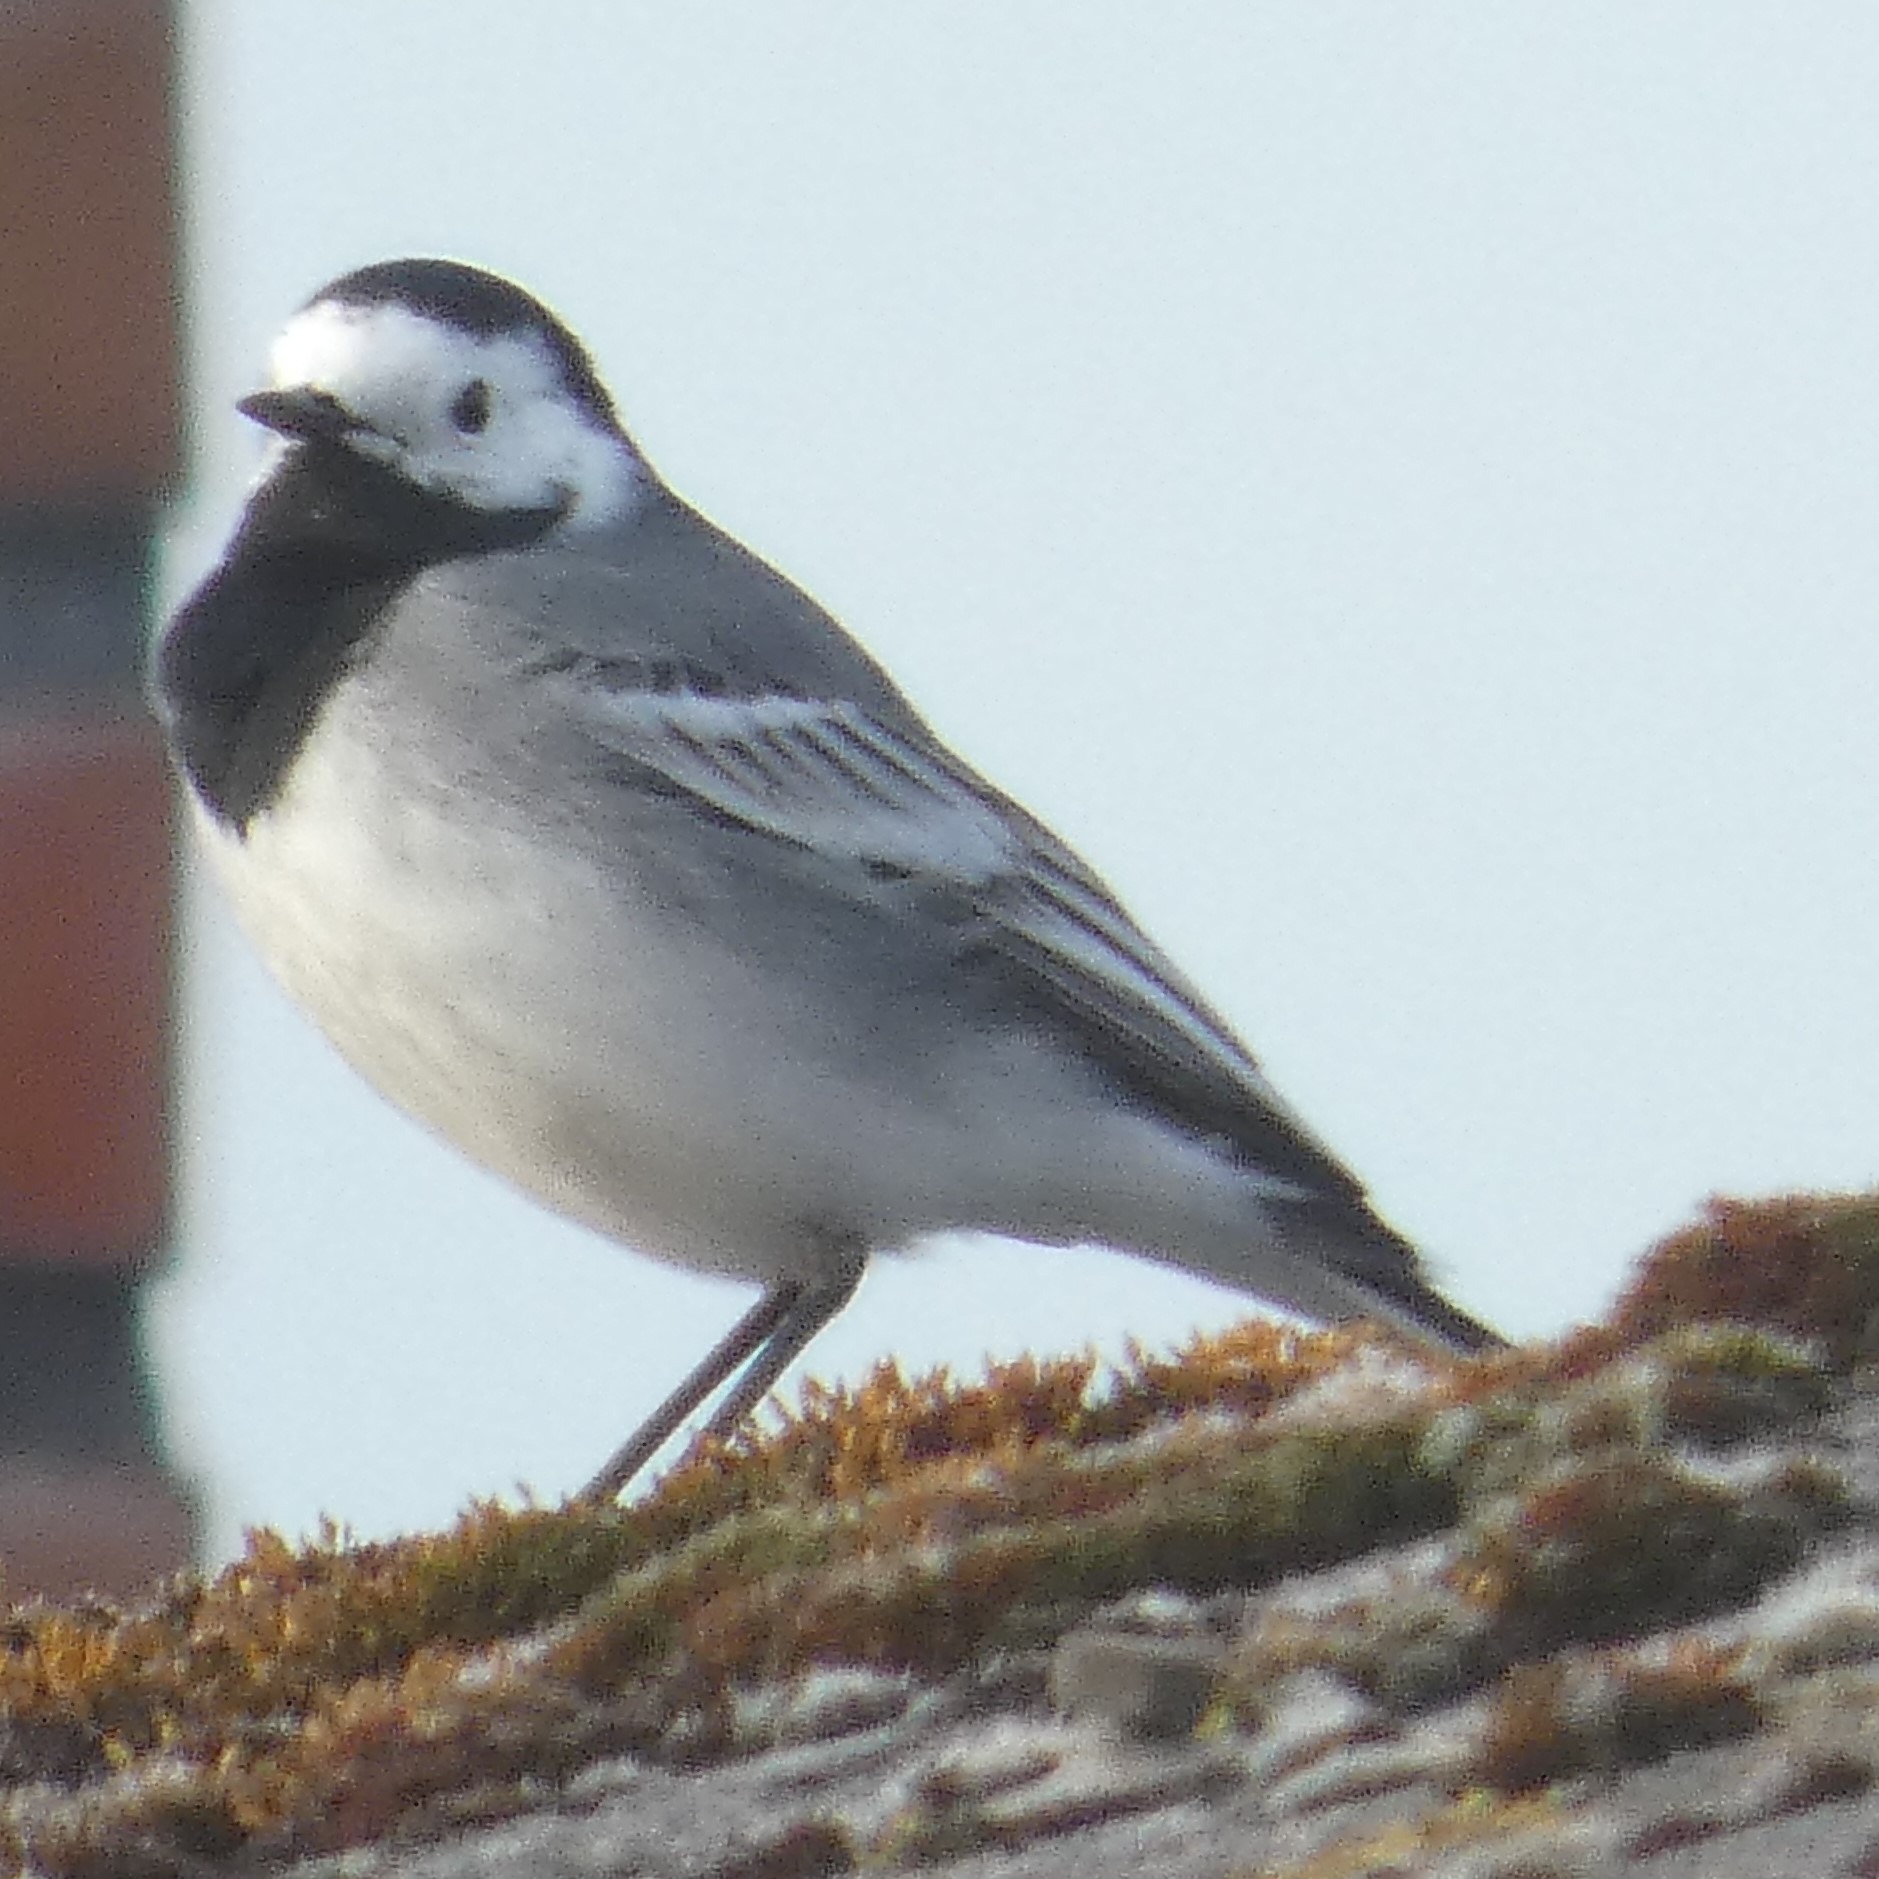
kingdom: Animalia
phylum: Chordata
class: Aves
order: Passeriformes
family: Motacillidae
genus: Motacilla
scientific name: Motacilla alba
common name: Hvid vipstjert
